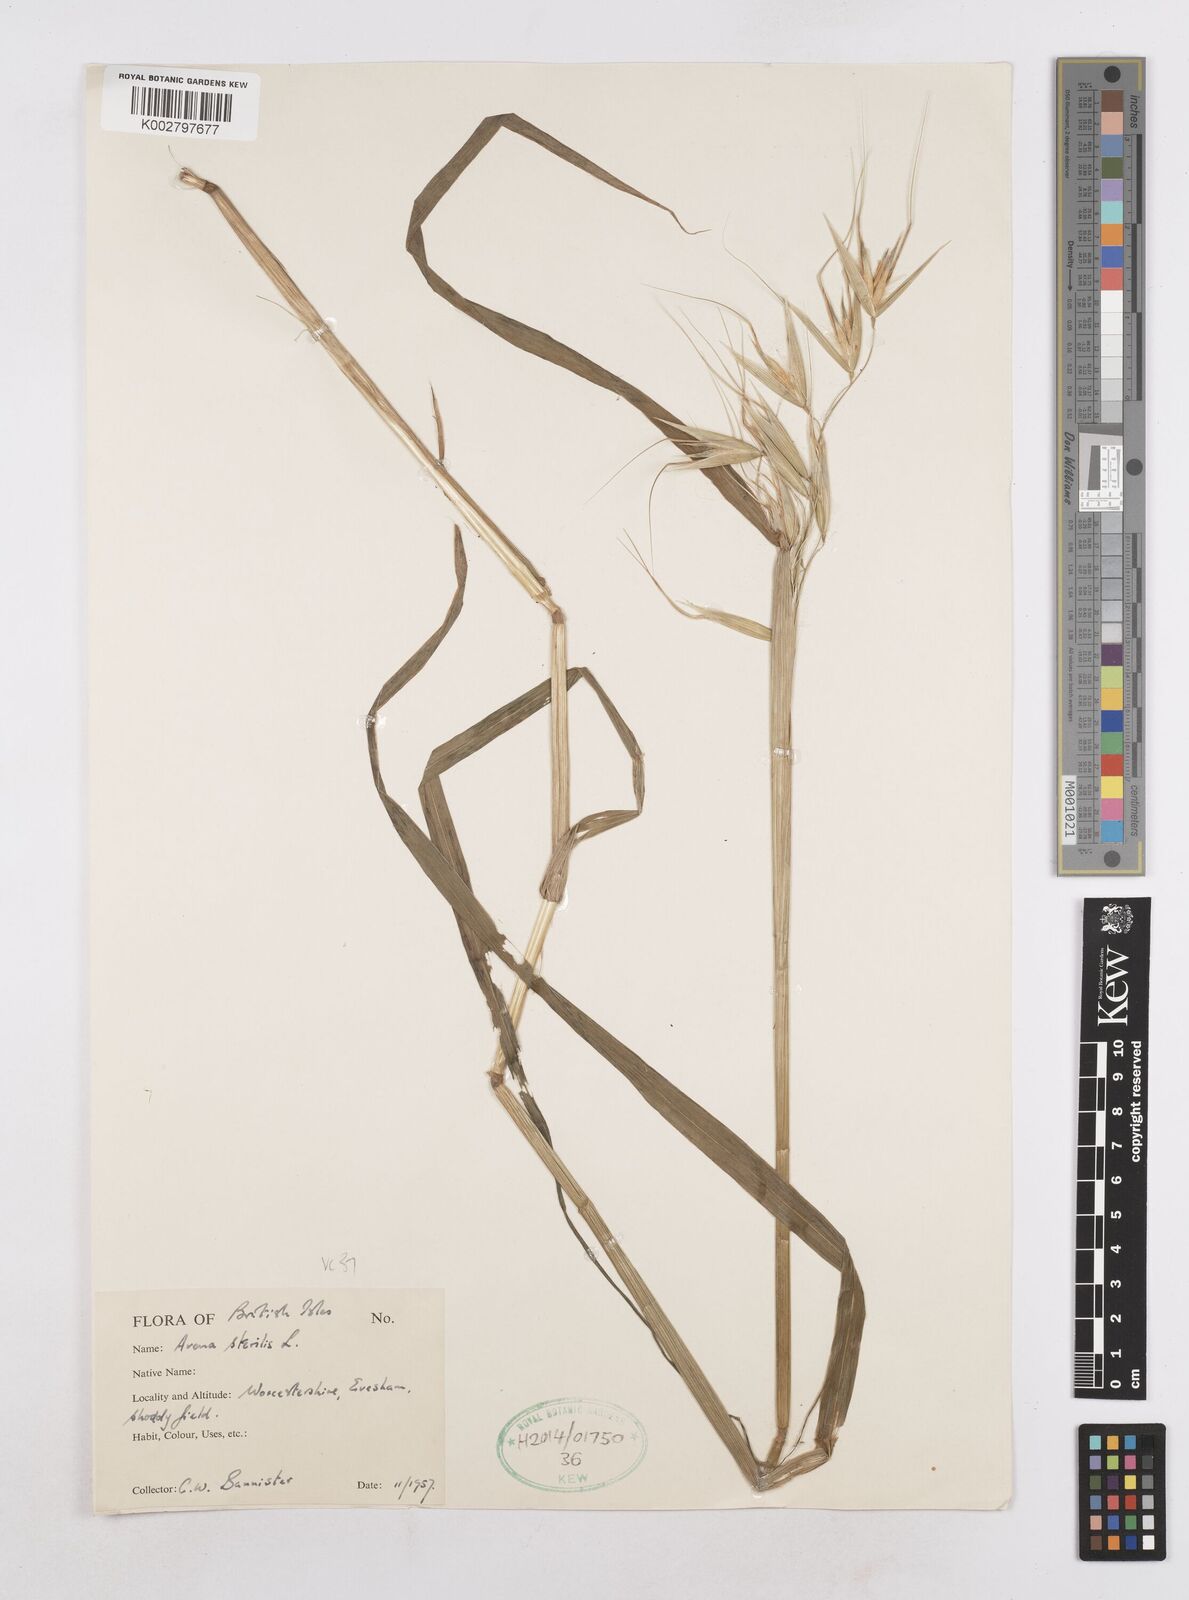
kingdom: Plantae
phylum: Tracheophyta
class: Liliopsida
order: Poales
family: Poaceae
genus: Avena
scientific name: Avena sterilis
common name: Animated oat
